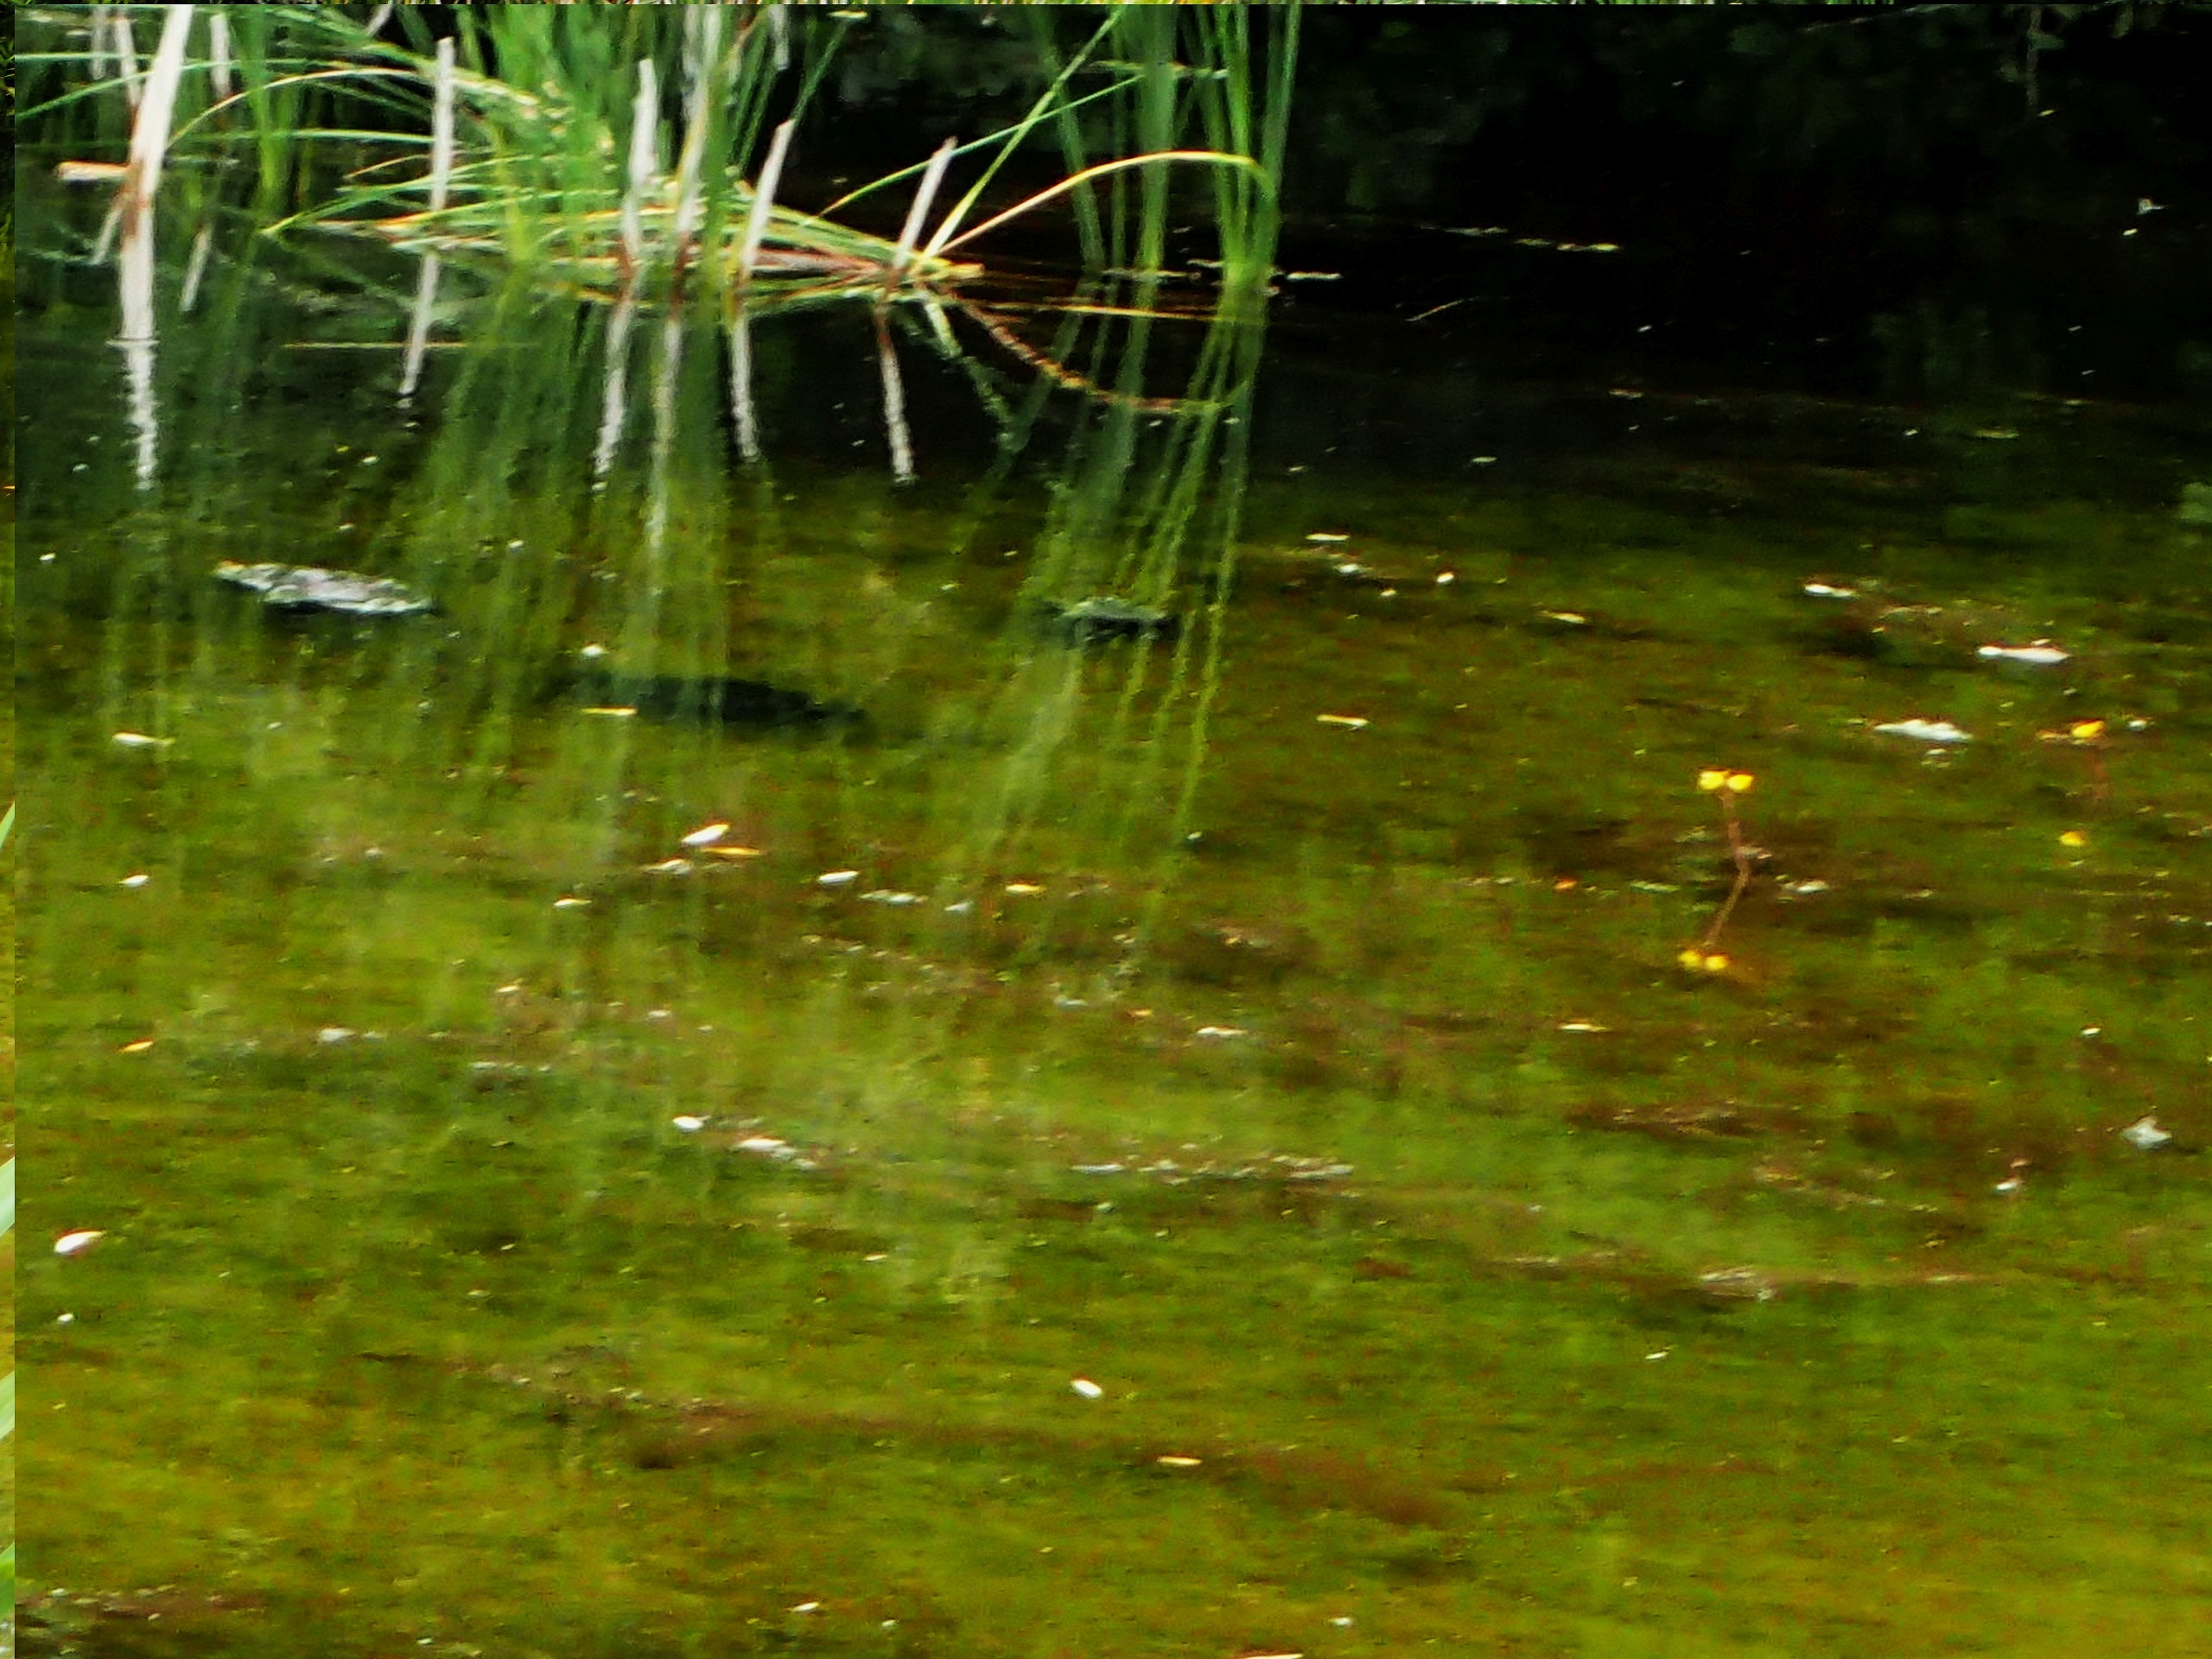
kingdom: Plantae
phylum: Tracheophyta
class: Magnoliopsida
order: Lamiales
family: Lentibulariaceae
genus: Utricularia
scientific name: Utricularia vulgaris
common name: Almindelig blærerod
